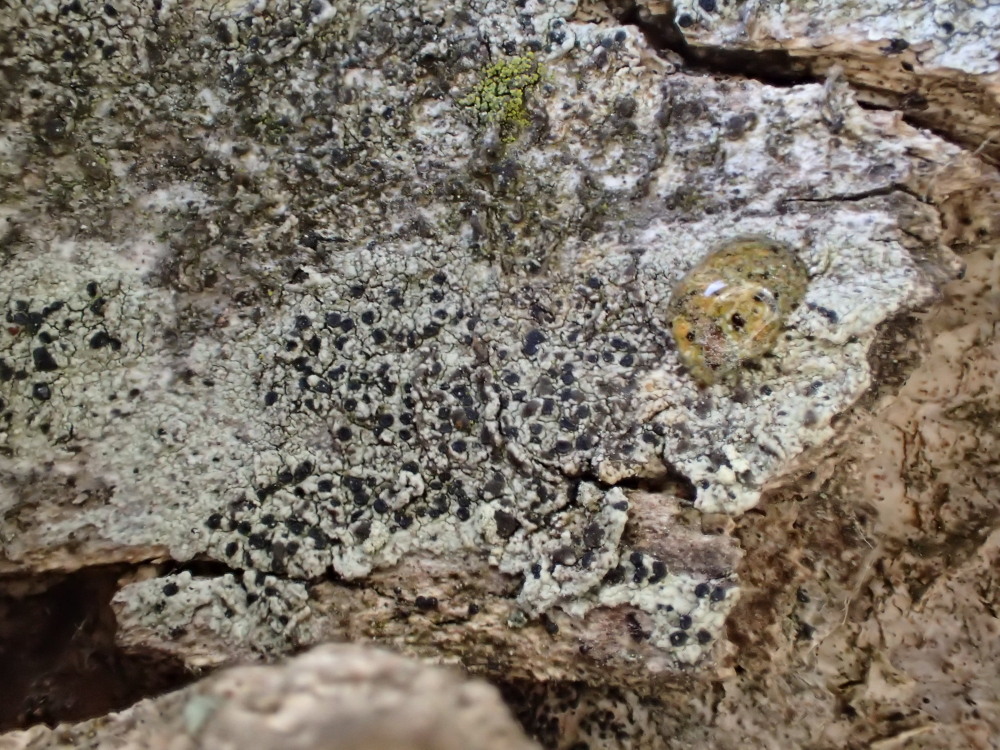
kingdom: Fungi
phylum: Ascomycota
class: Lecanoromycetes
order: Lecanorales
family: Lecanoraceae
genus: Lecidella
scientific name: Lecidella elaeochroma
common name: grågrøn skivelav
